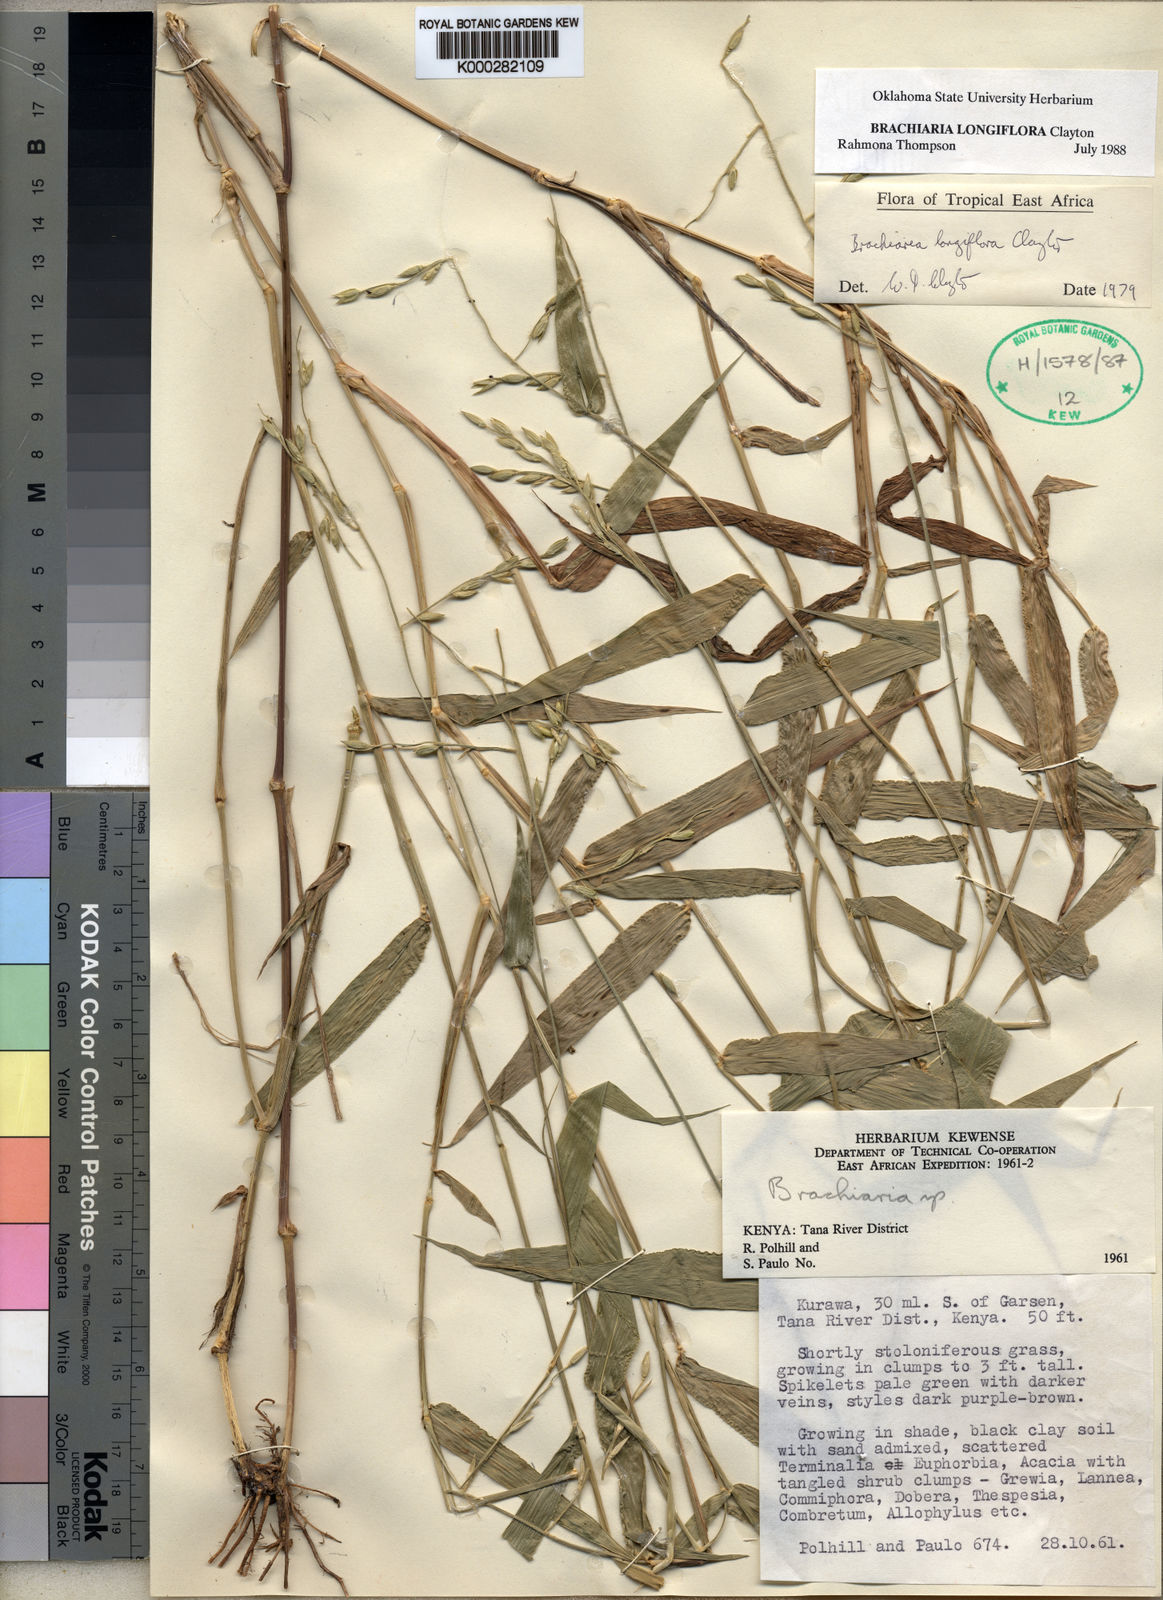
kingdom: Plantae
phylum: Tracheophyta
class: Liliopsida
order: Poales
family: Poaceae
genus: Urochloa
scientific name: Urochloa Brachiaria longiflora
